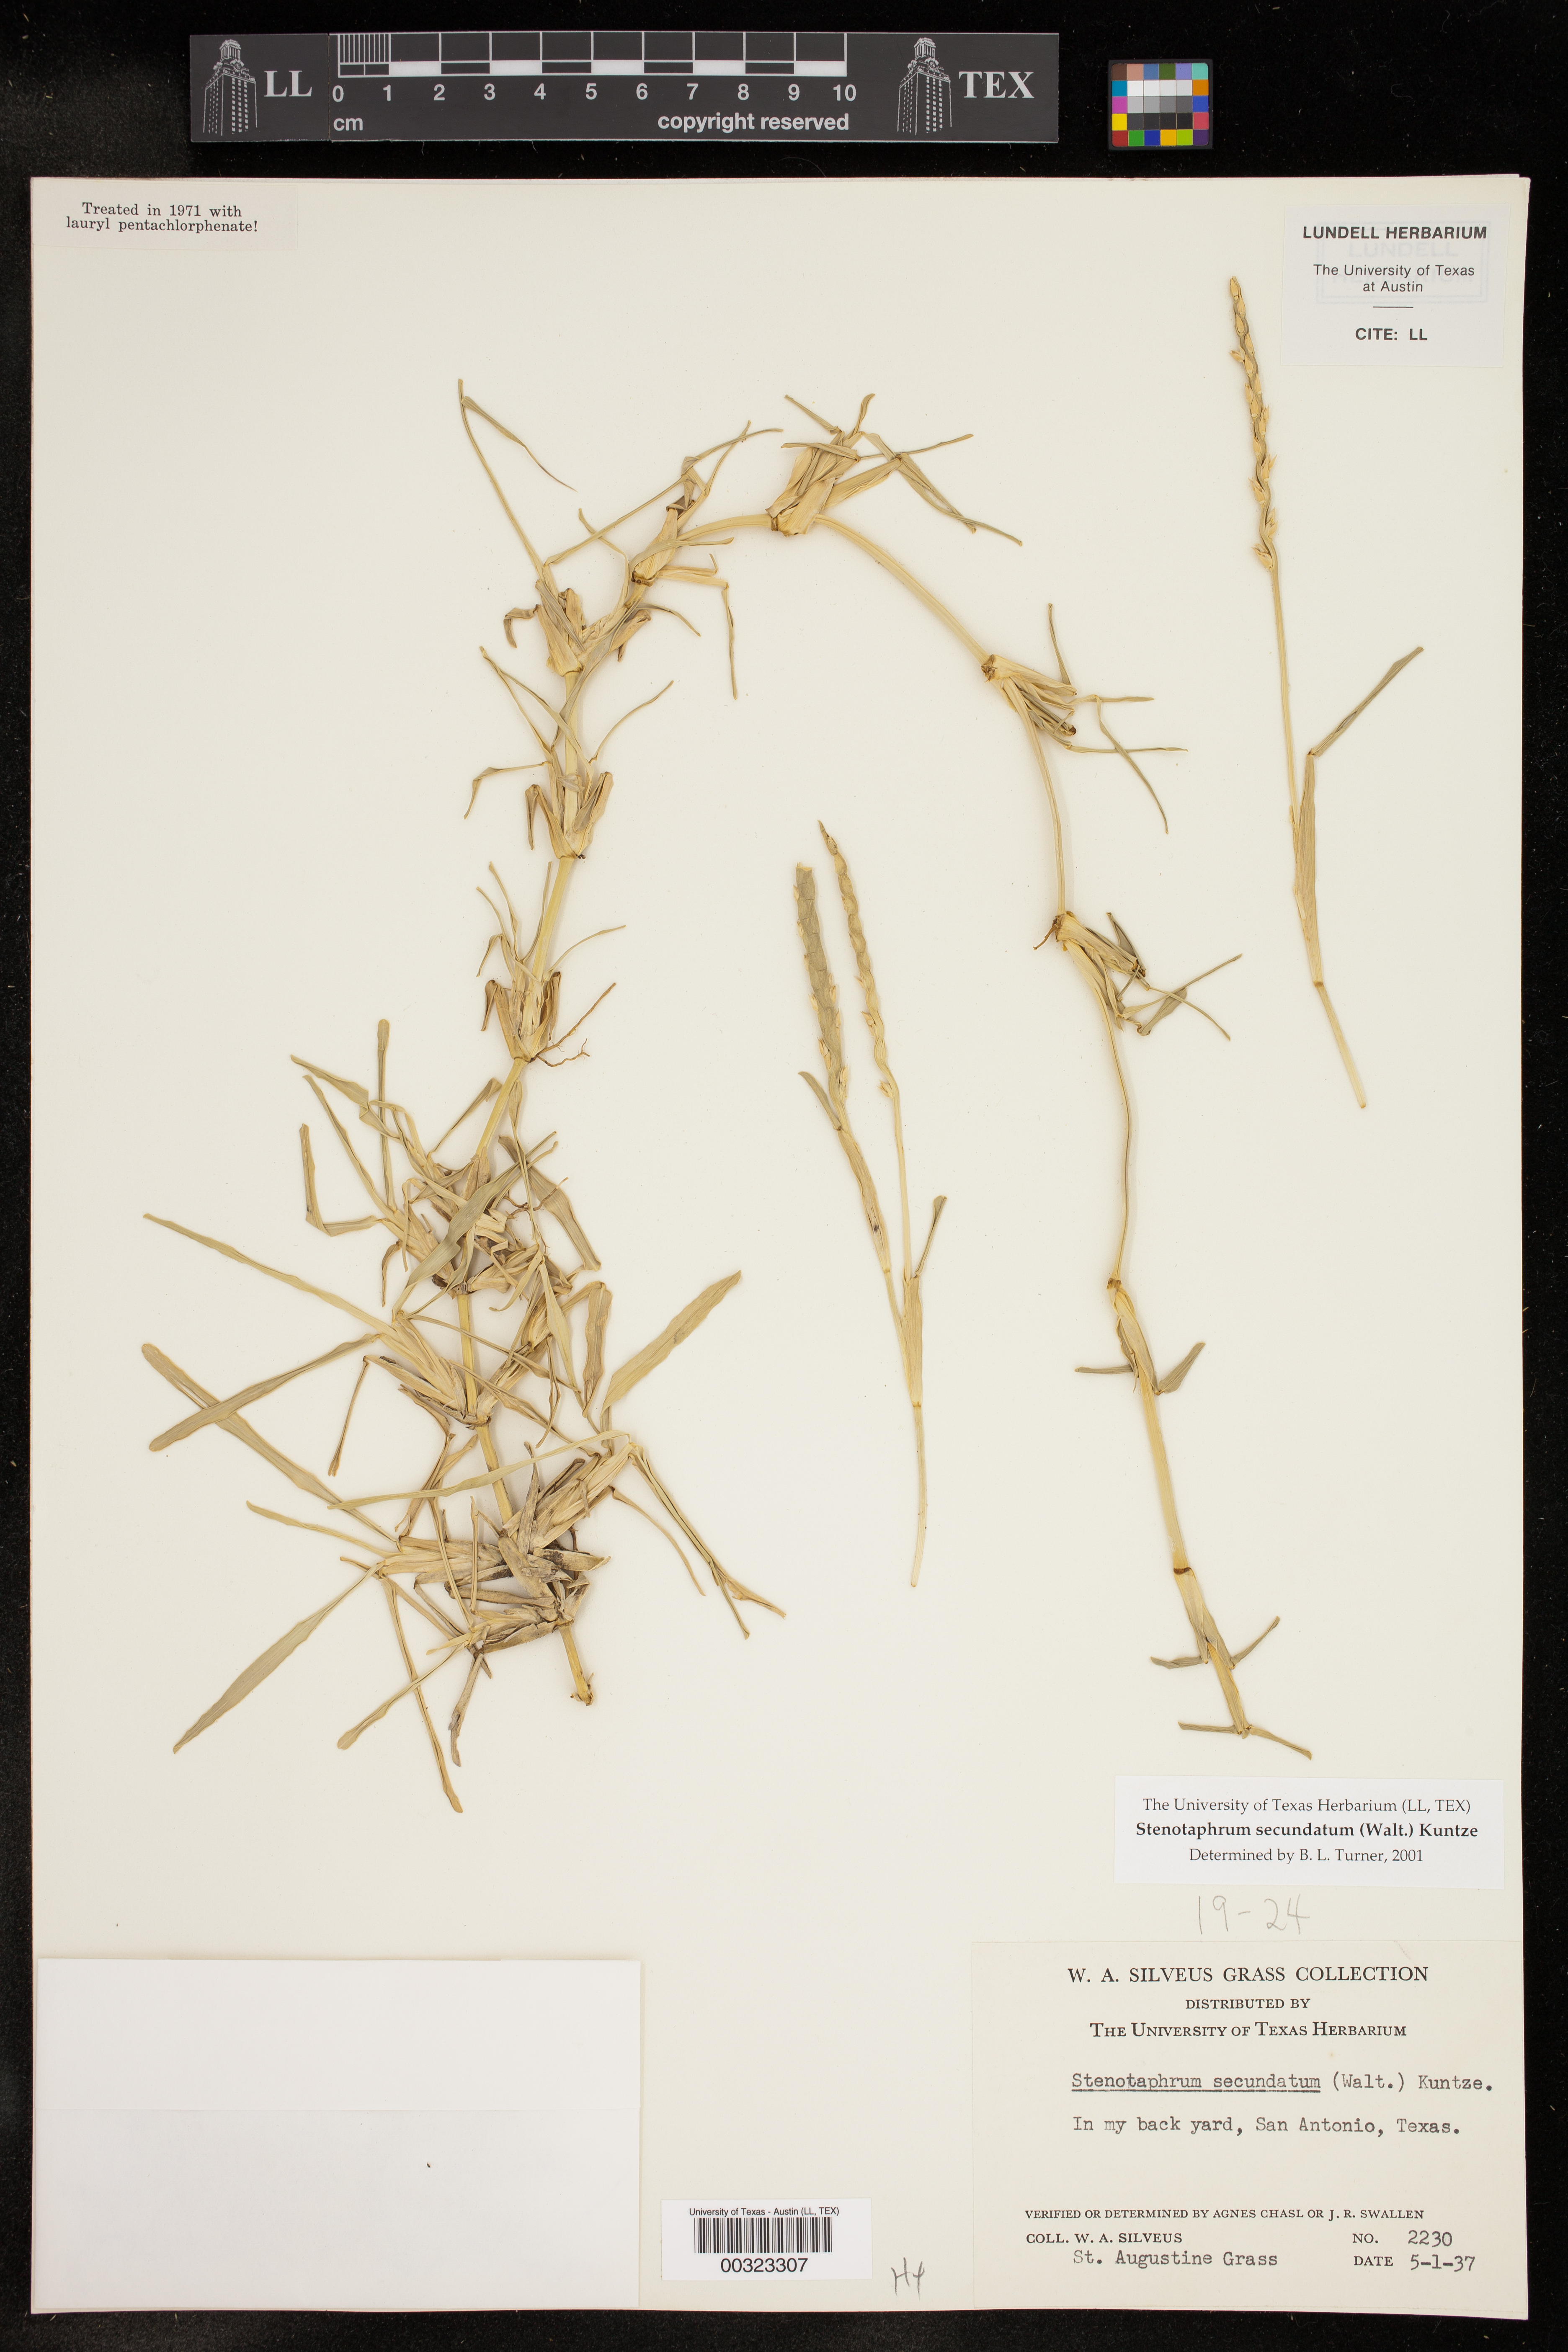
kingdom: Plantae
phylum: Tracheophyta
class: Liliopsida
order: Poales
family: Poaceae
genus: Stenotaphrum
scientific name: Stenotaphrum secundatum
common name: St. augustine grass
